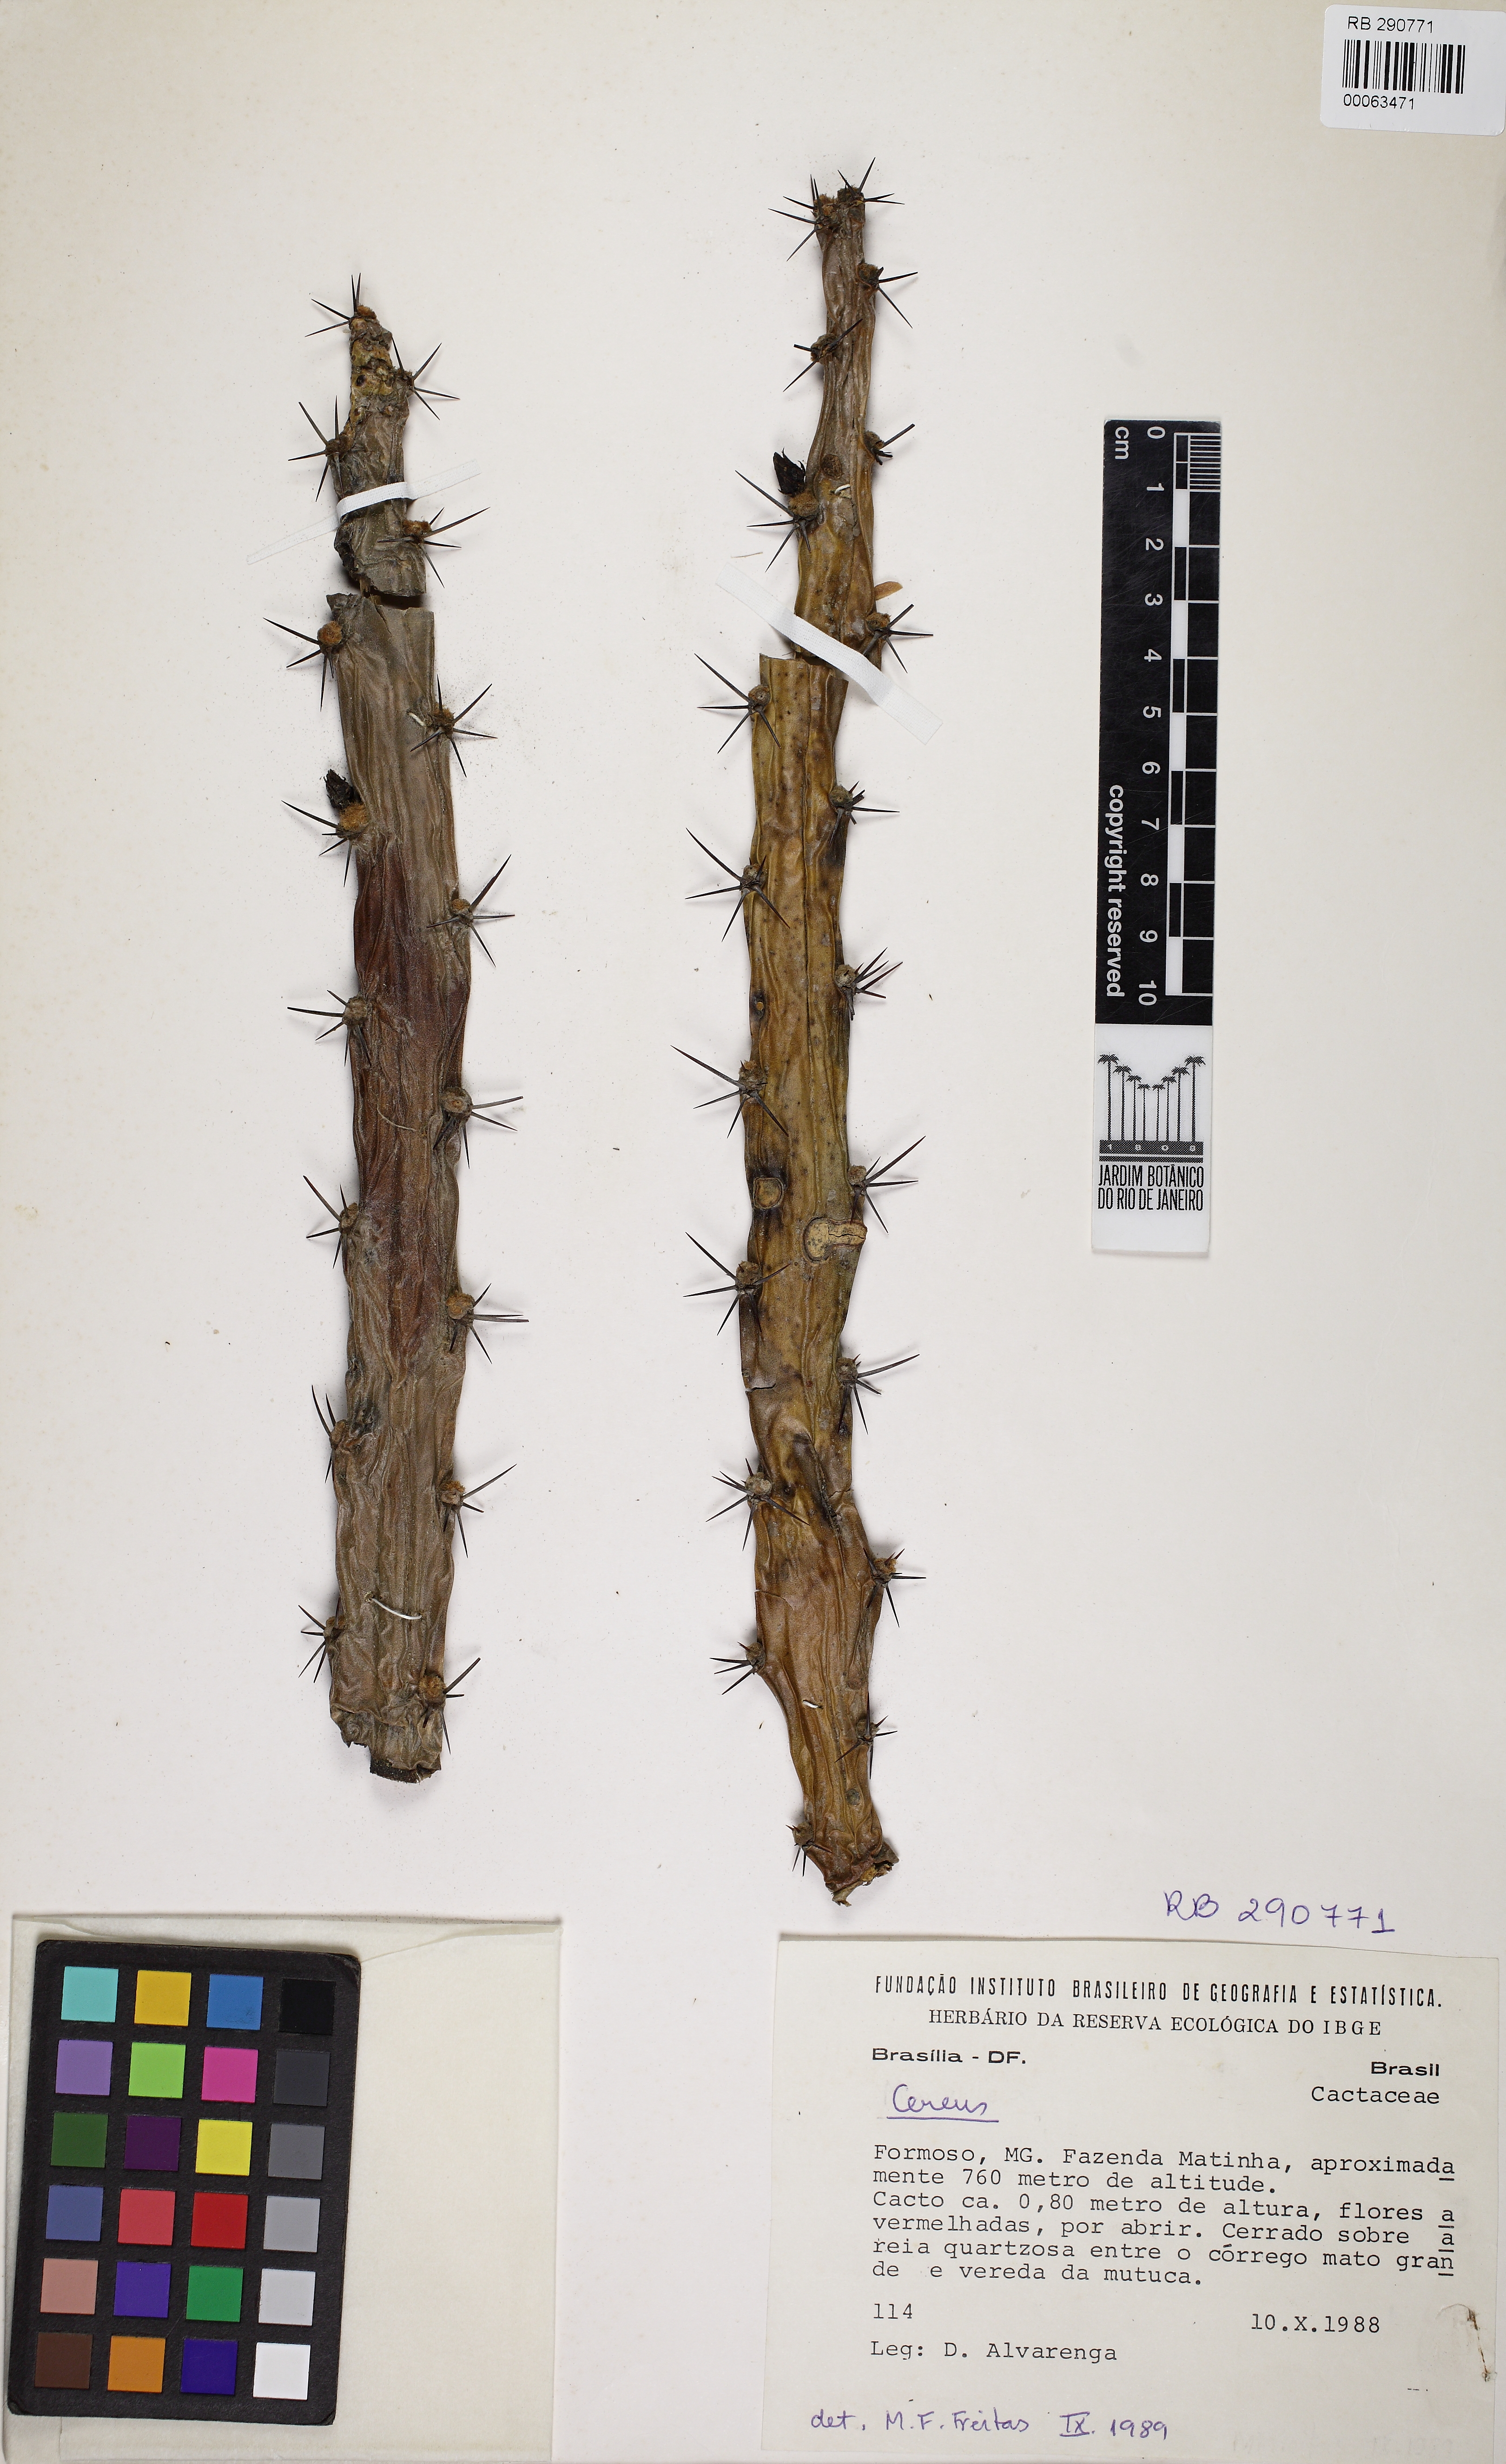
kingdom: Plantae
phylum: Tracheophyta
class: Magnoliopsida
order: Caryophyllales
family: Cactaceae
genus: Cereus
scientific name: Cereus albicaulis
